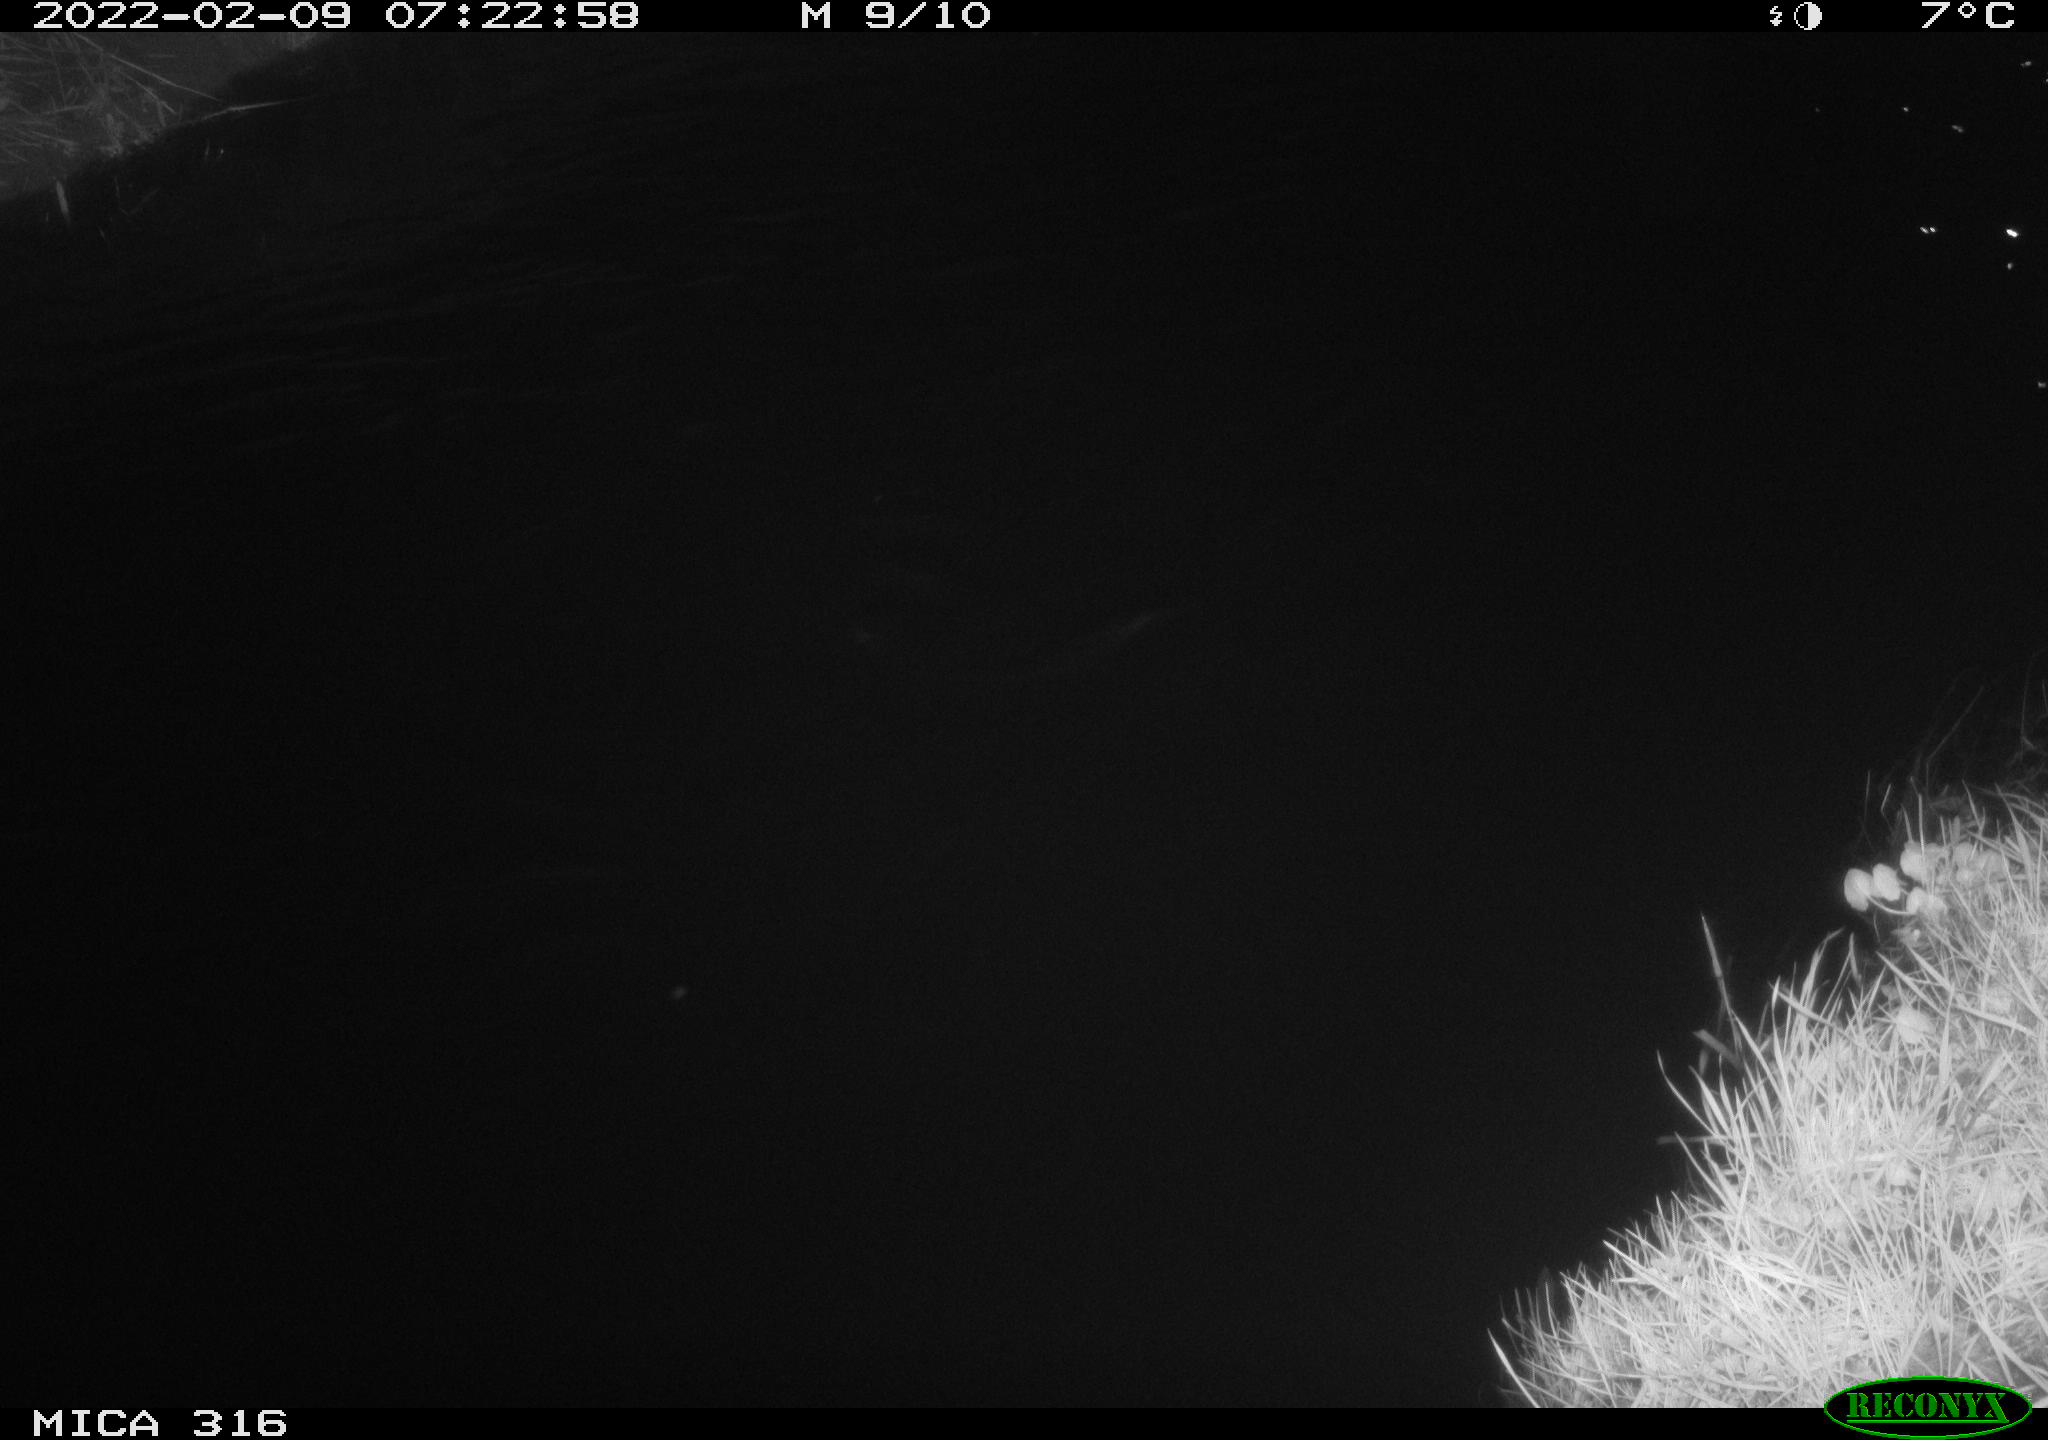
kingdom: Animalia
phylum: Chordata
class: Aves
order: Anseriformes
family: Anatidae
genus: Anas
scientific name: Anas platyrhynchos
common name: Mallard
